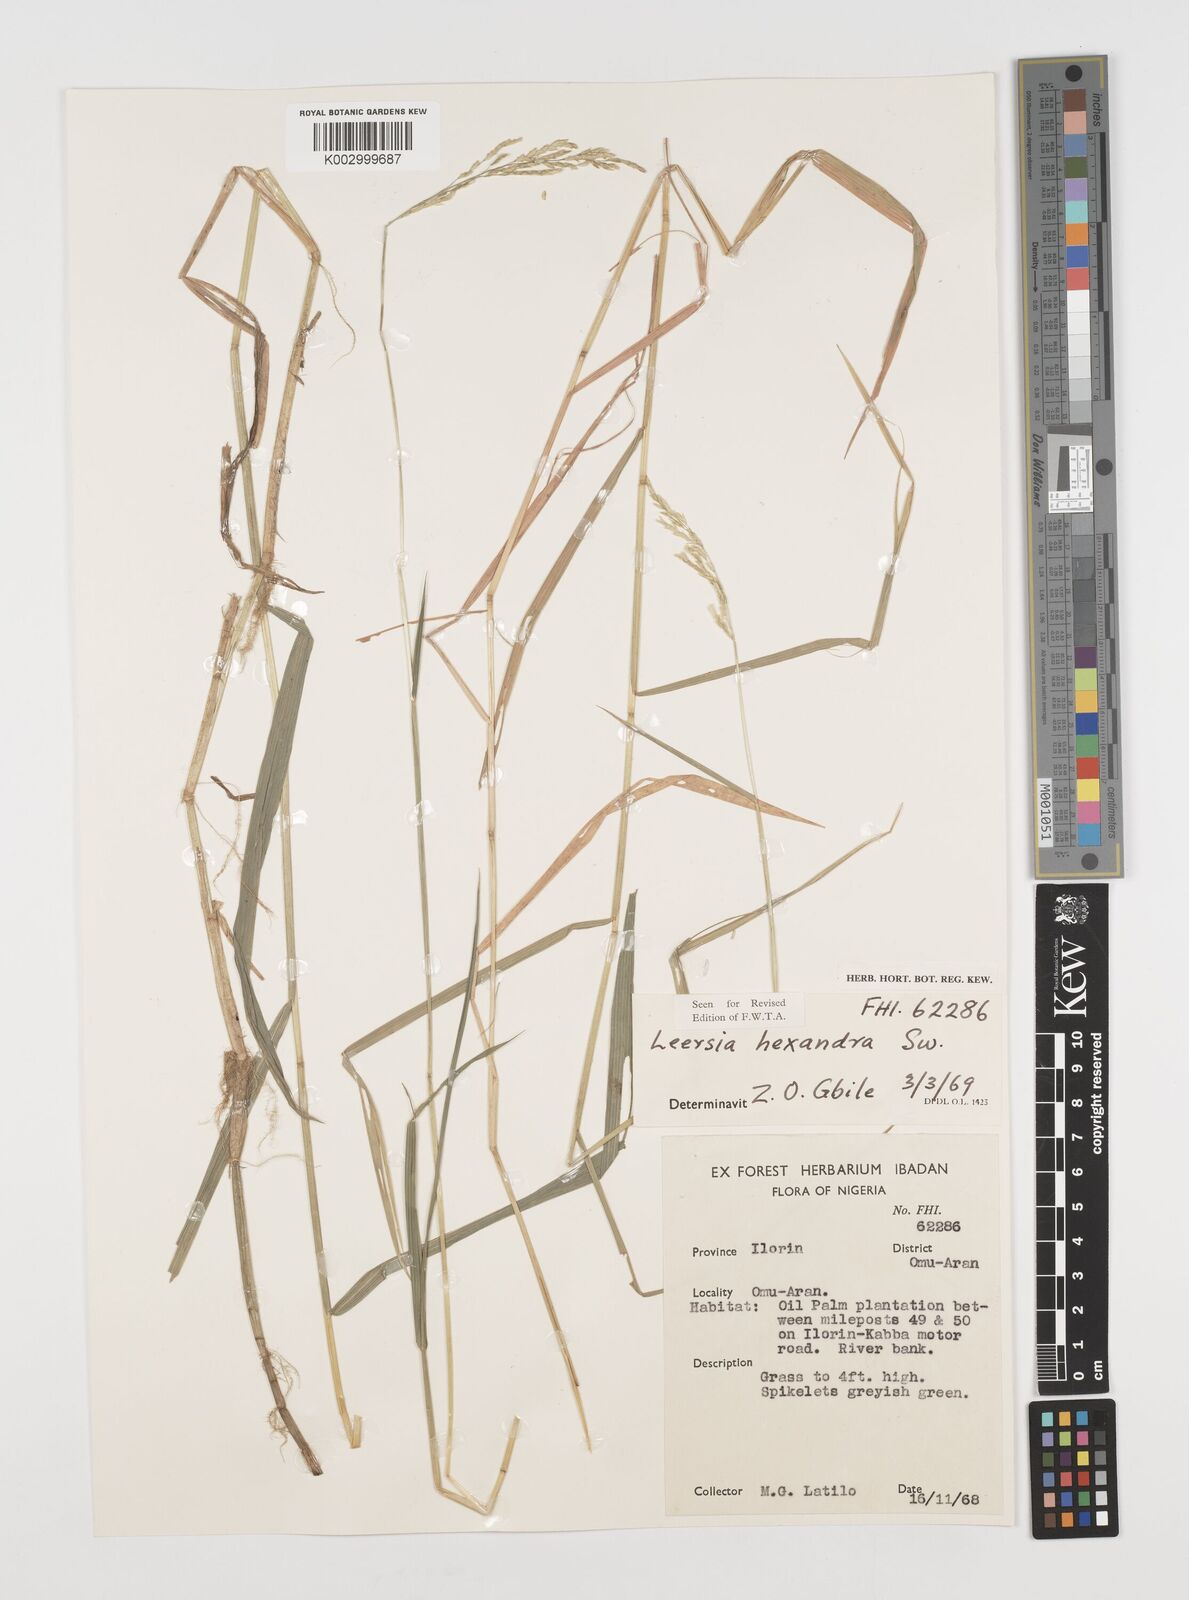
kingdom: Plantae
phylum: Tracheophyta
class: Liliopsida
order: Poales
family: Poaceae
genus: Leersia
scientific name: Leersia hexandra
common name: Southern cut grass
